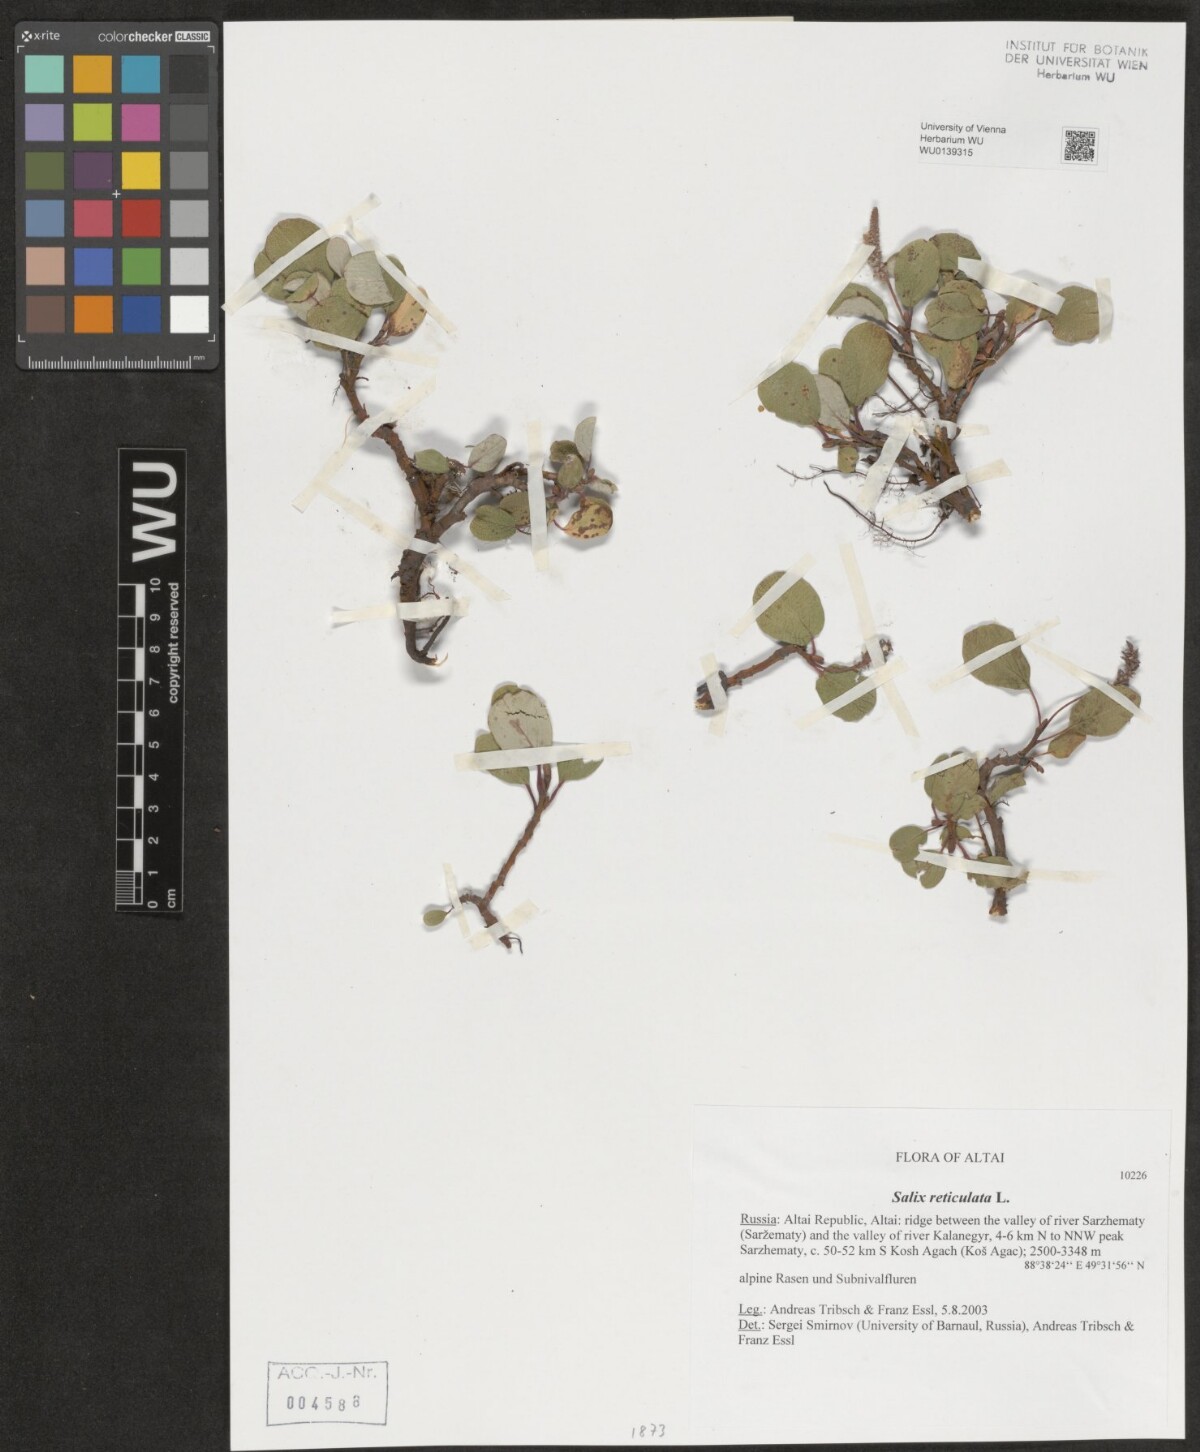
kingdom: Plantae
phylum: Tracheophyta
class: Magnoliopsida
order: Malpighiales
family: Salicaceae
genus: Salix
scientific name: Salix reticulata
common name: Net-leaved willow
